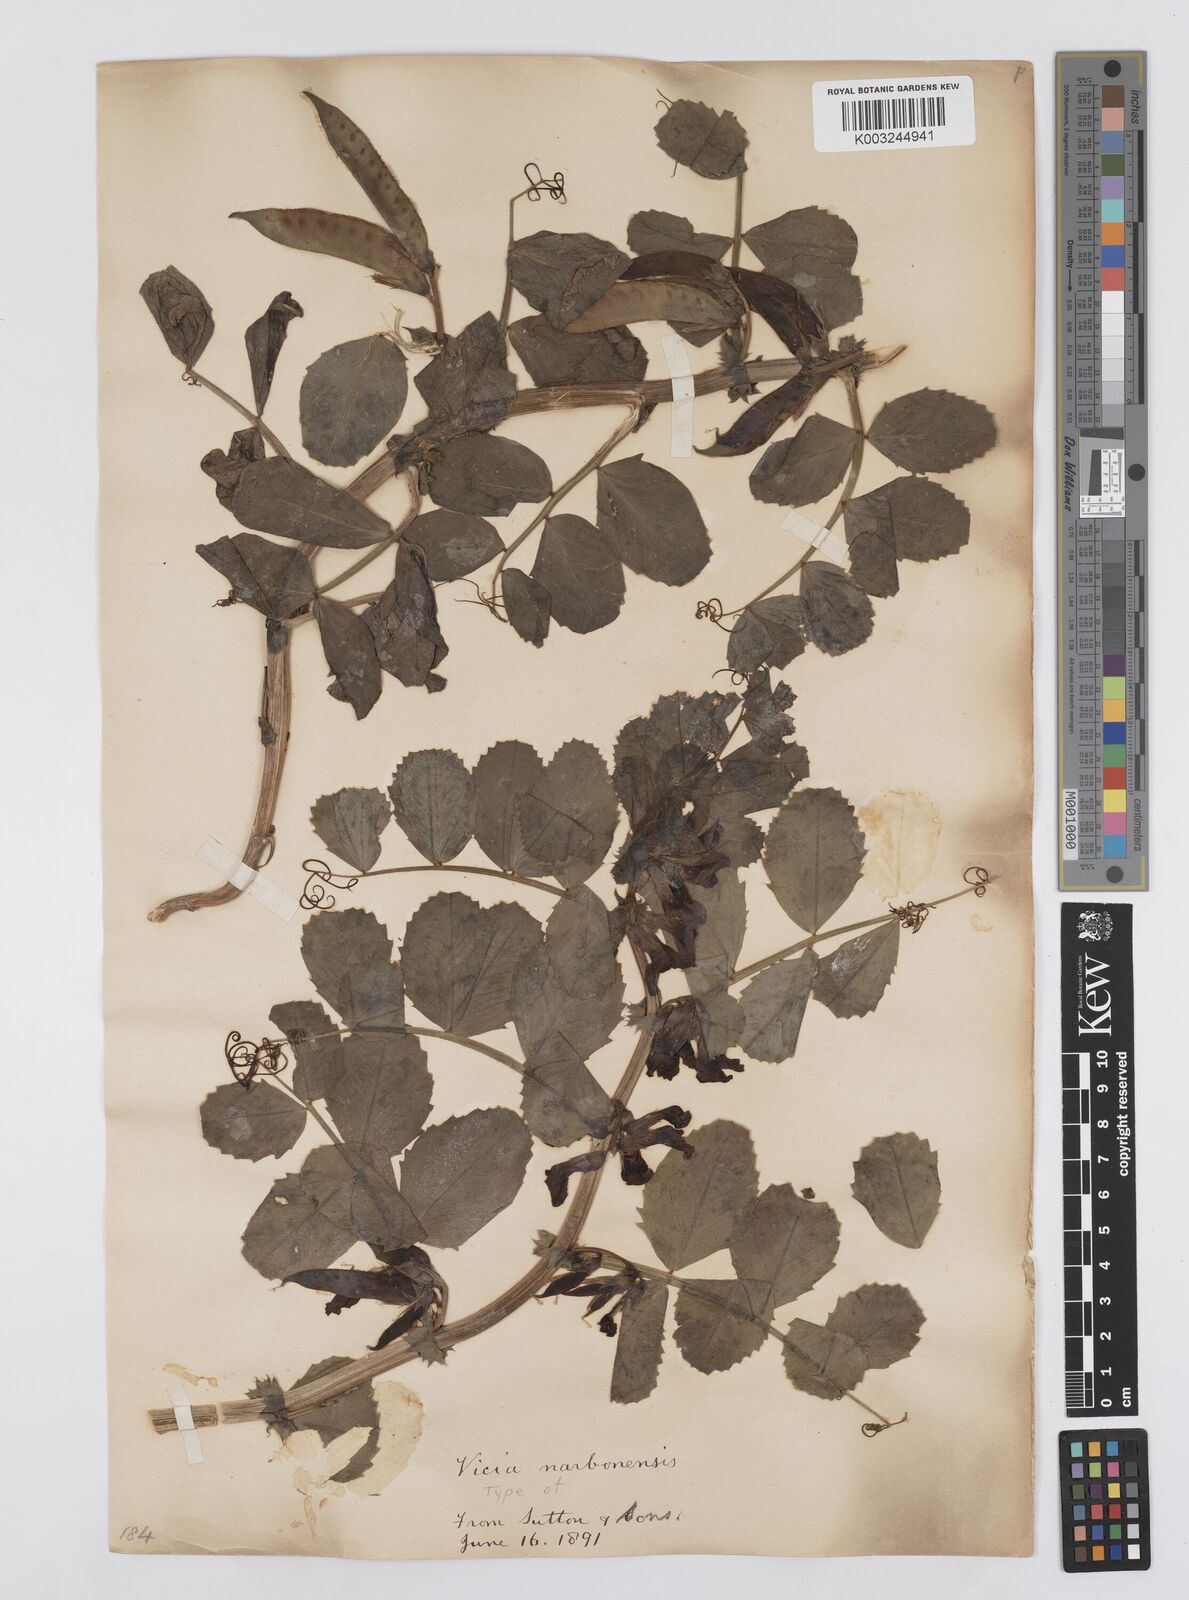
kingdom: Plantae
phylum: Tracheophyta
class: Magnoliopsida
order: Fabales
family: Fabaceae
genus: Vicia
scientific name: Vicia serratifolia
